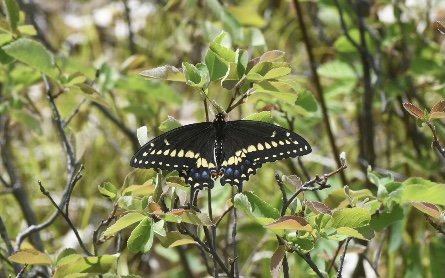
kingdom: Animalia
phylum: Arthropoda
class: Insecta
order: Lepidoptera
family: Papilionidae
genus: Papilio
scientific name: Papilio polyxenes
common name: Black Swallowtail
